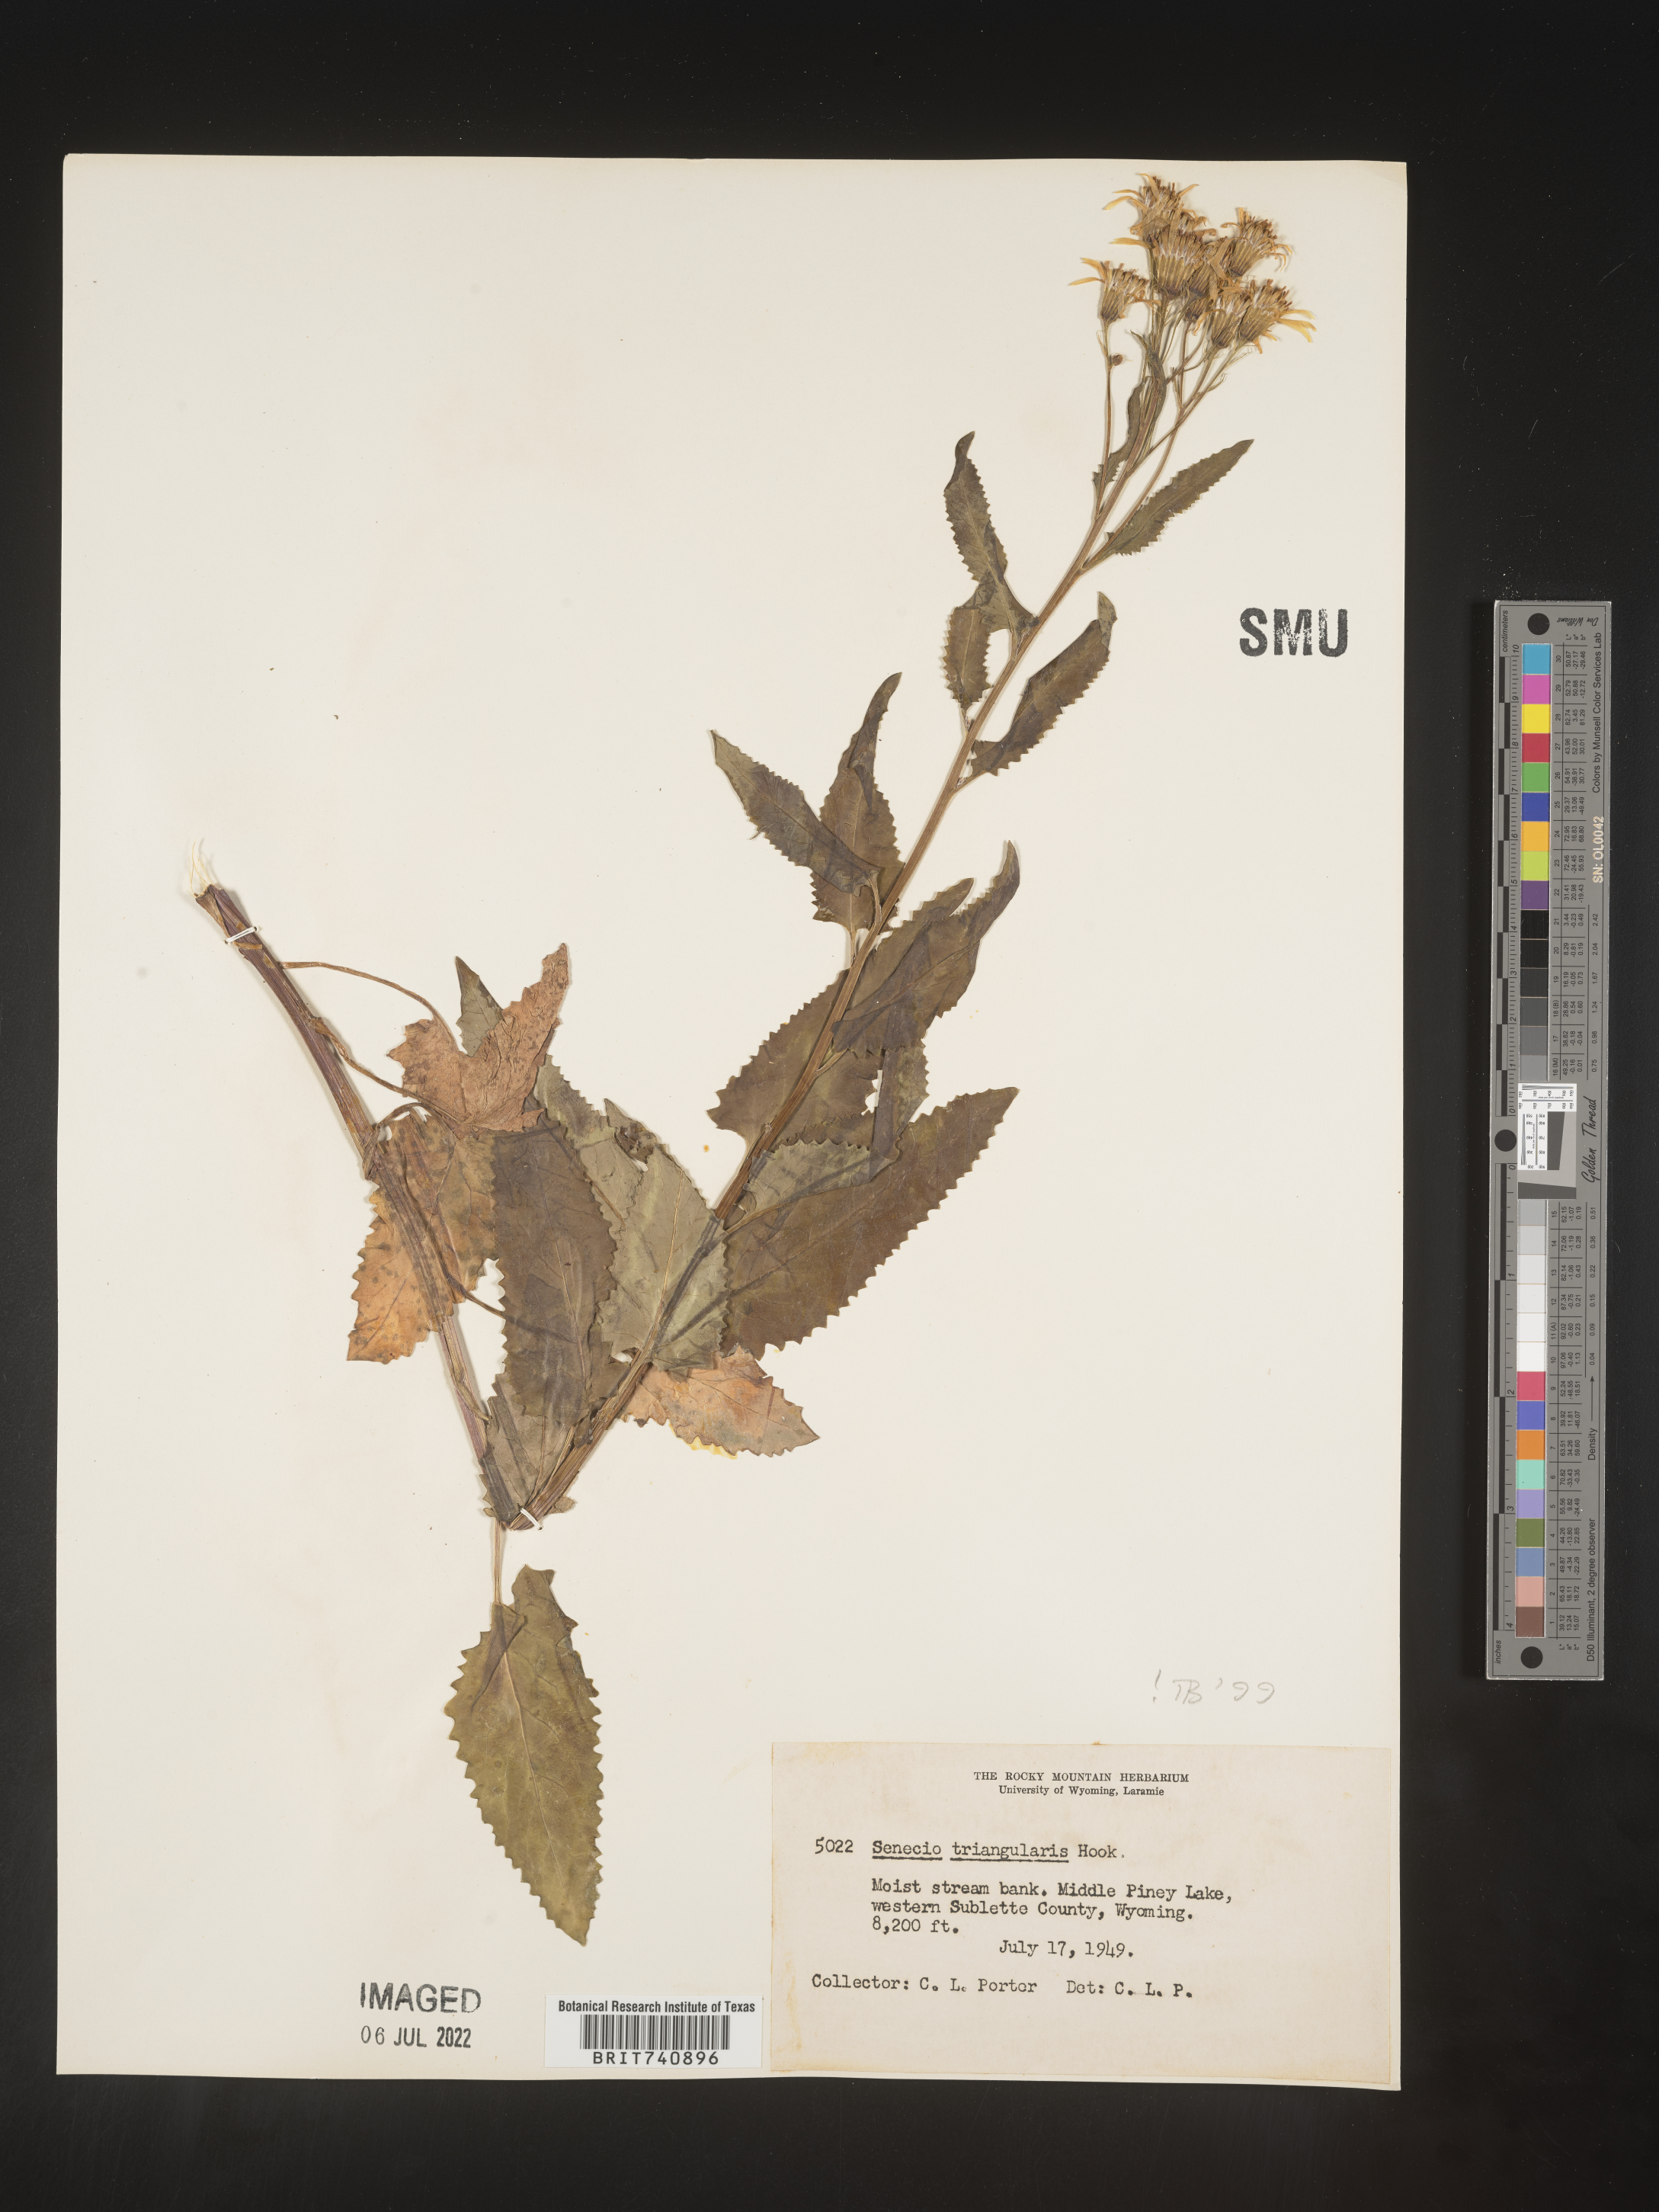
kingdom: Plantae
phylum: Tracheophyta
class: Magnoliopsida
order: Asterales
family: Asteraceae
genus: Senecio
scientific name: Senecio triangularis
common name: Arrowleaf butterweed
